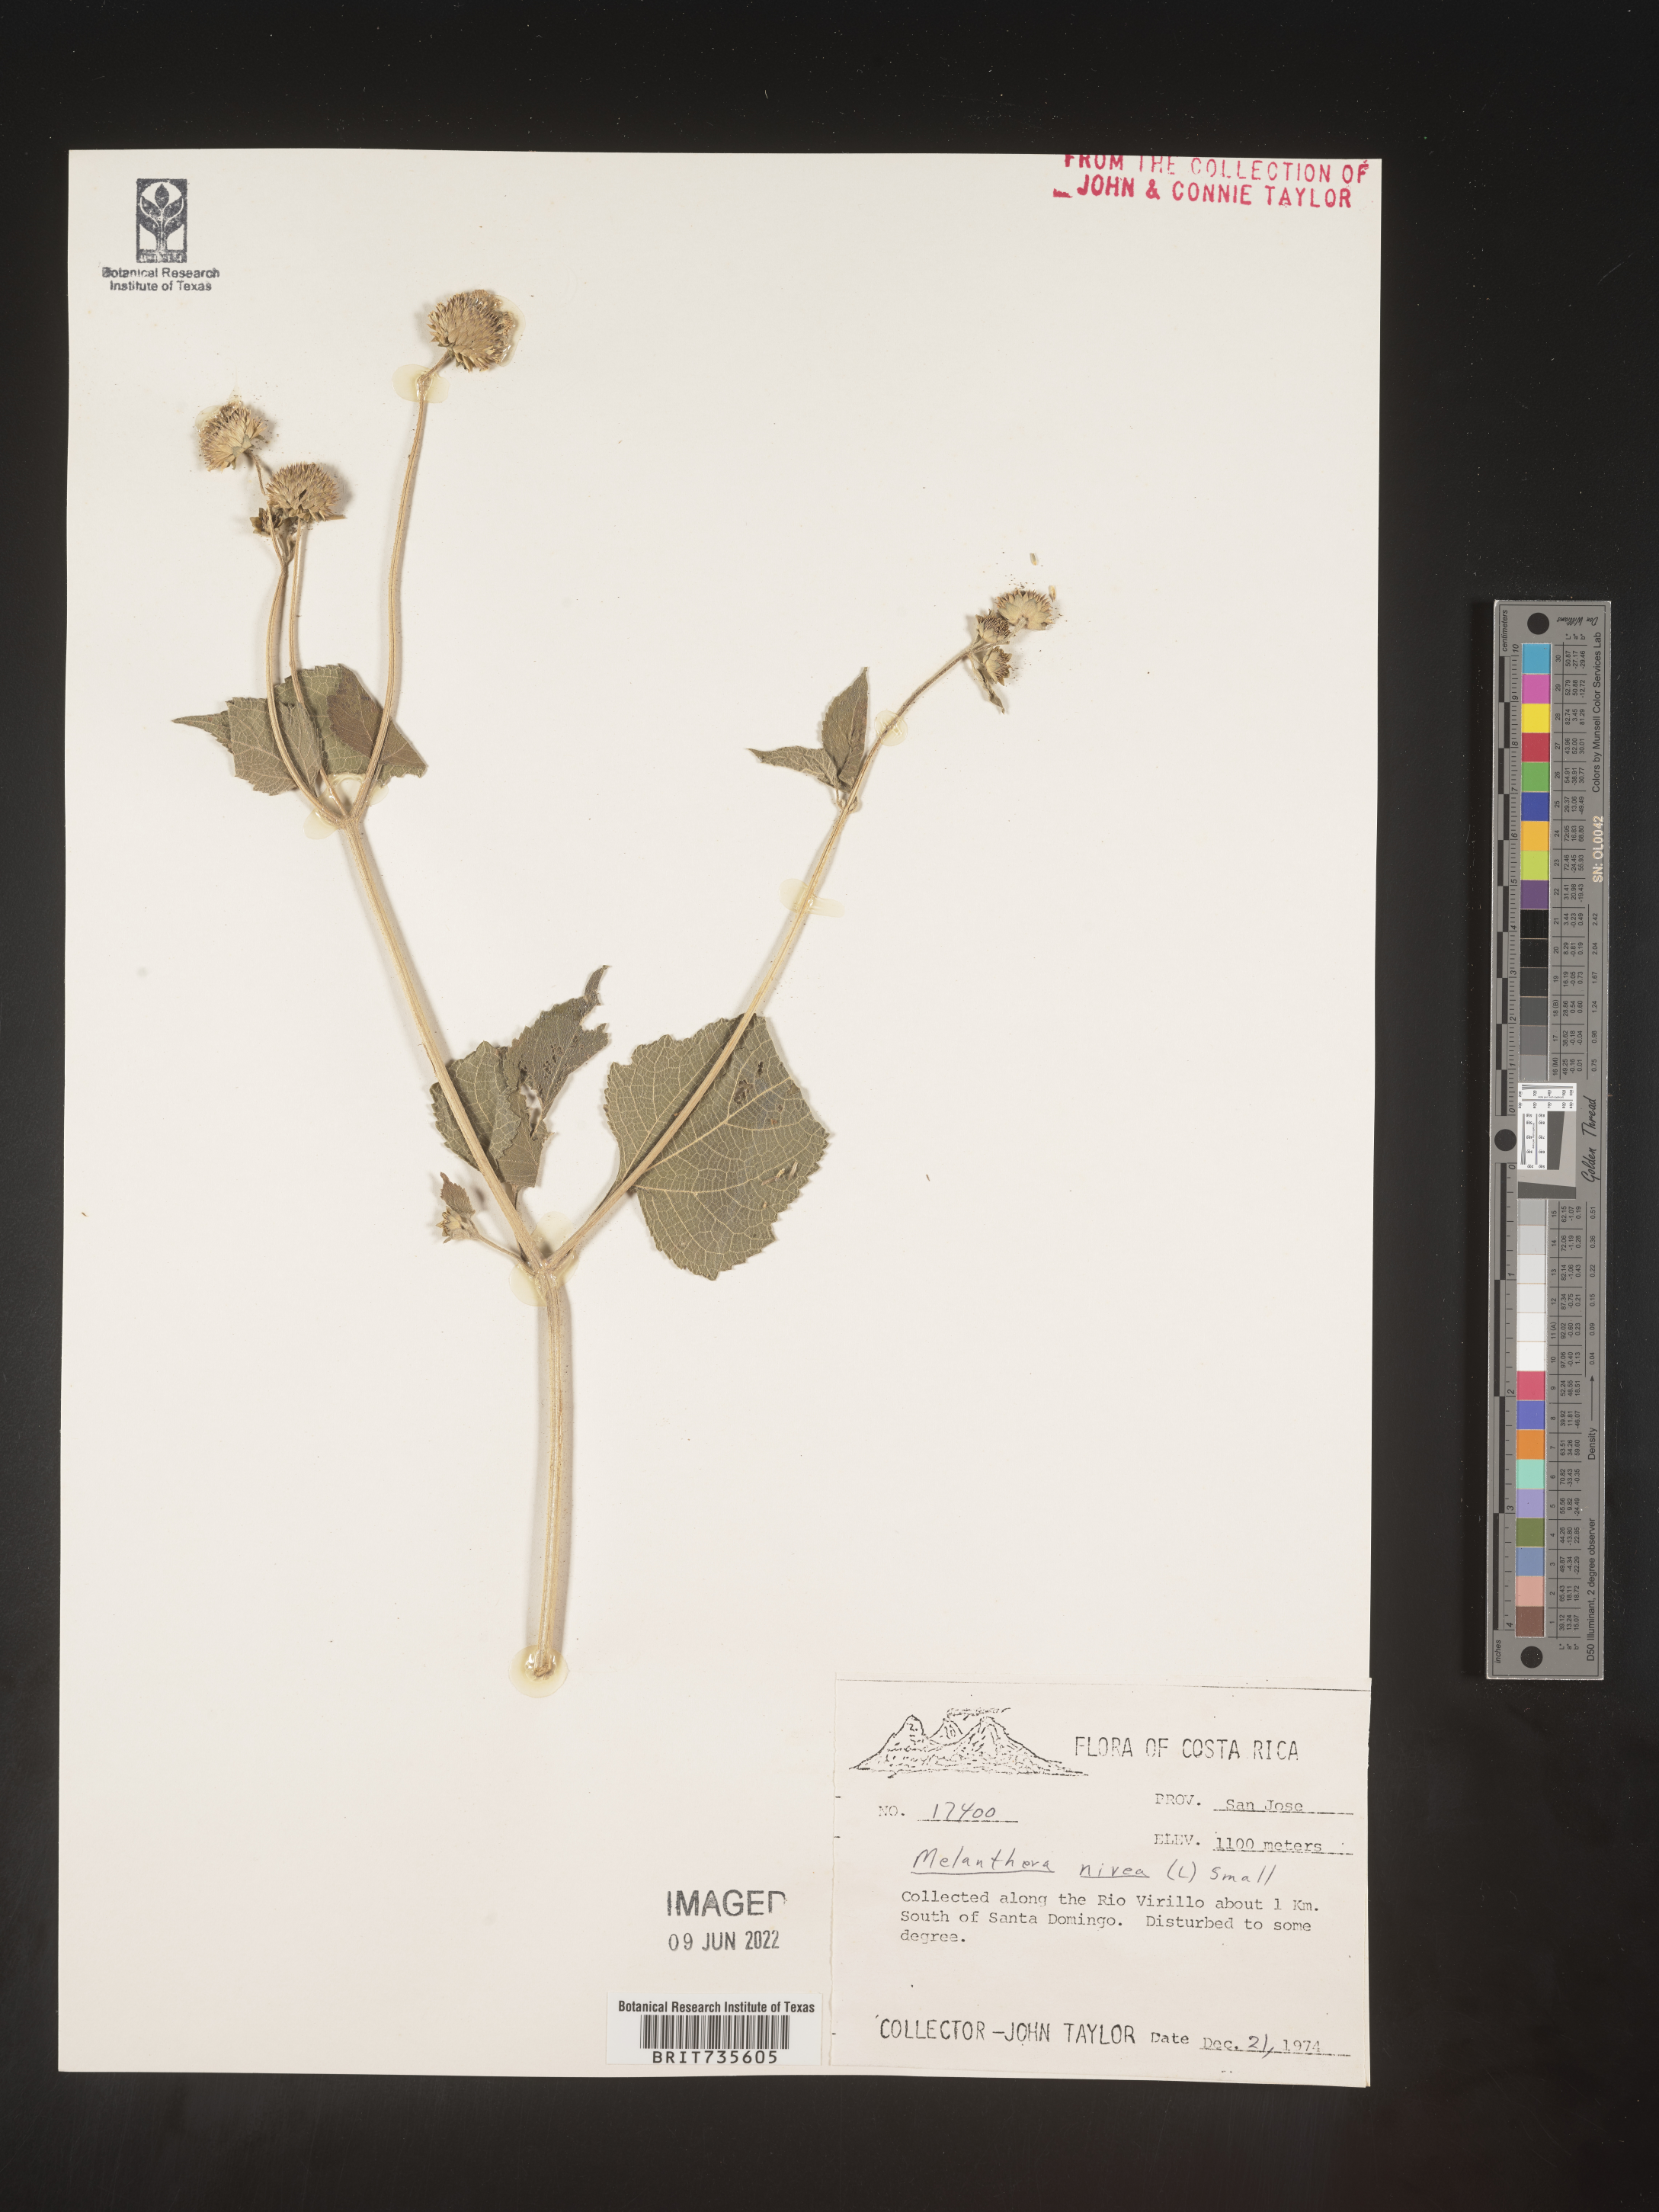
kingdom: Plantae
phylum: Tracheophyta
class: Magnoliopsida
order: Asterales
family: Asteraceae
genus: Melanthera
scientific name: Melanthera
